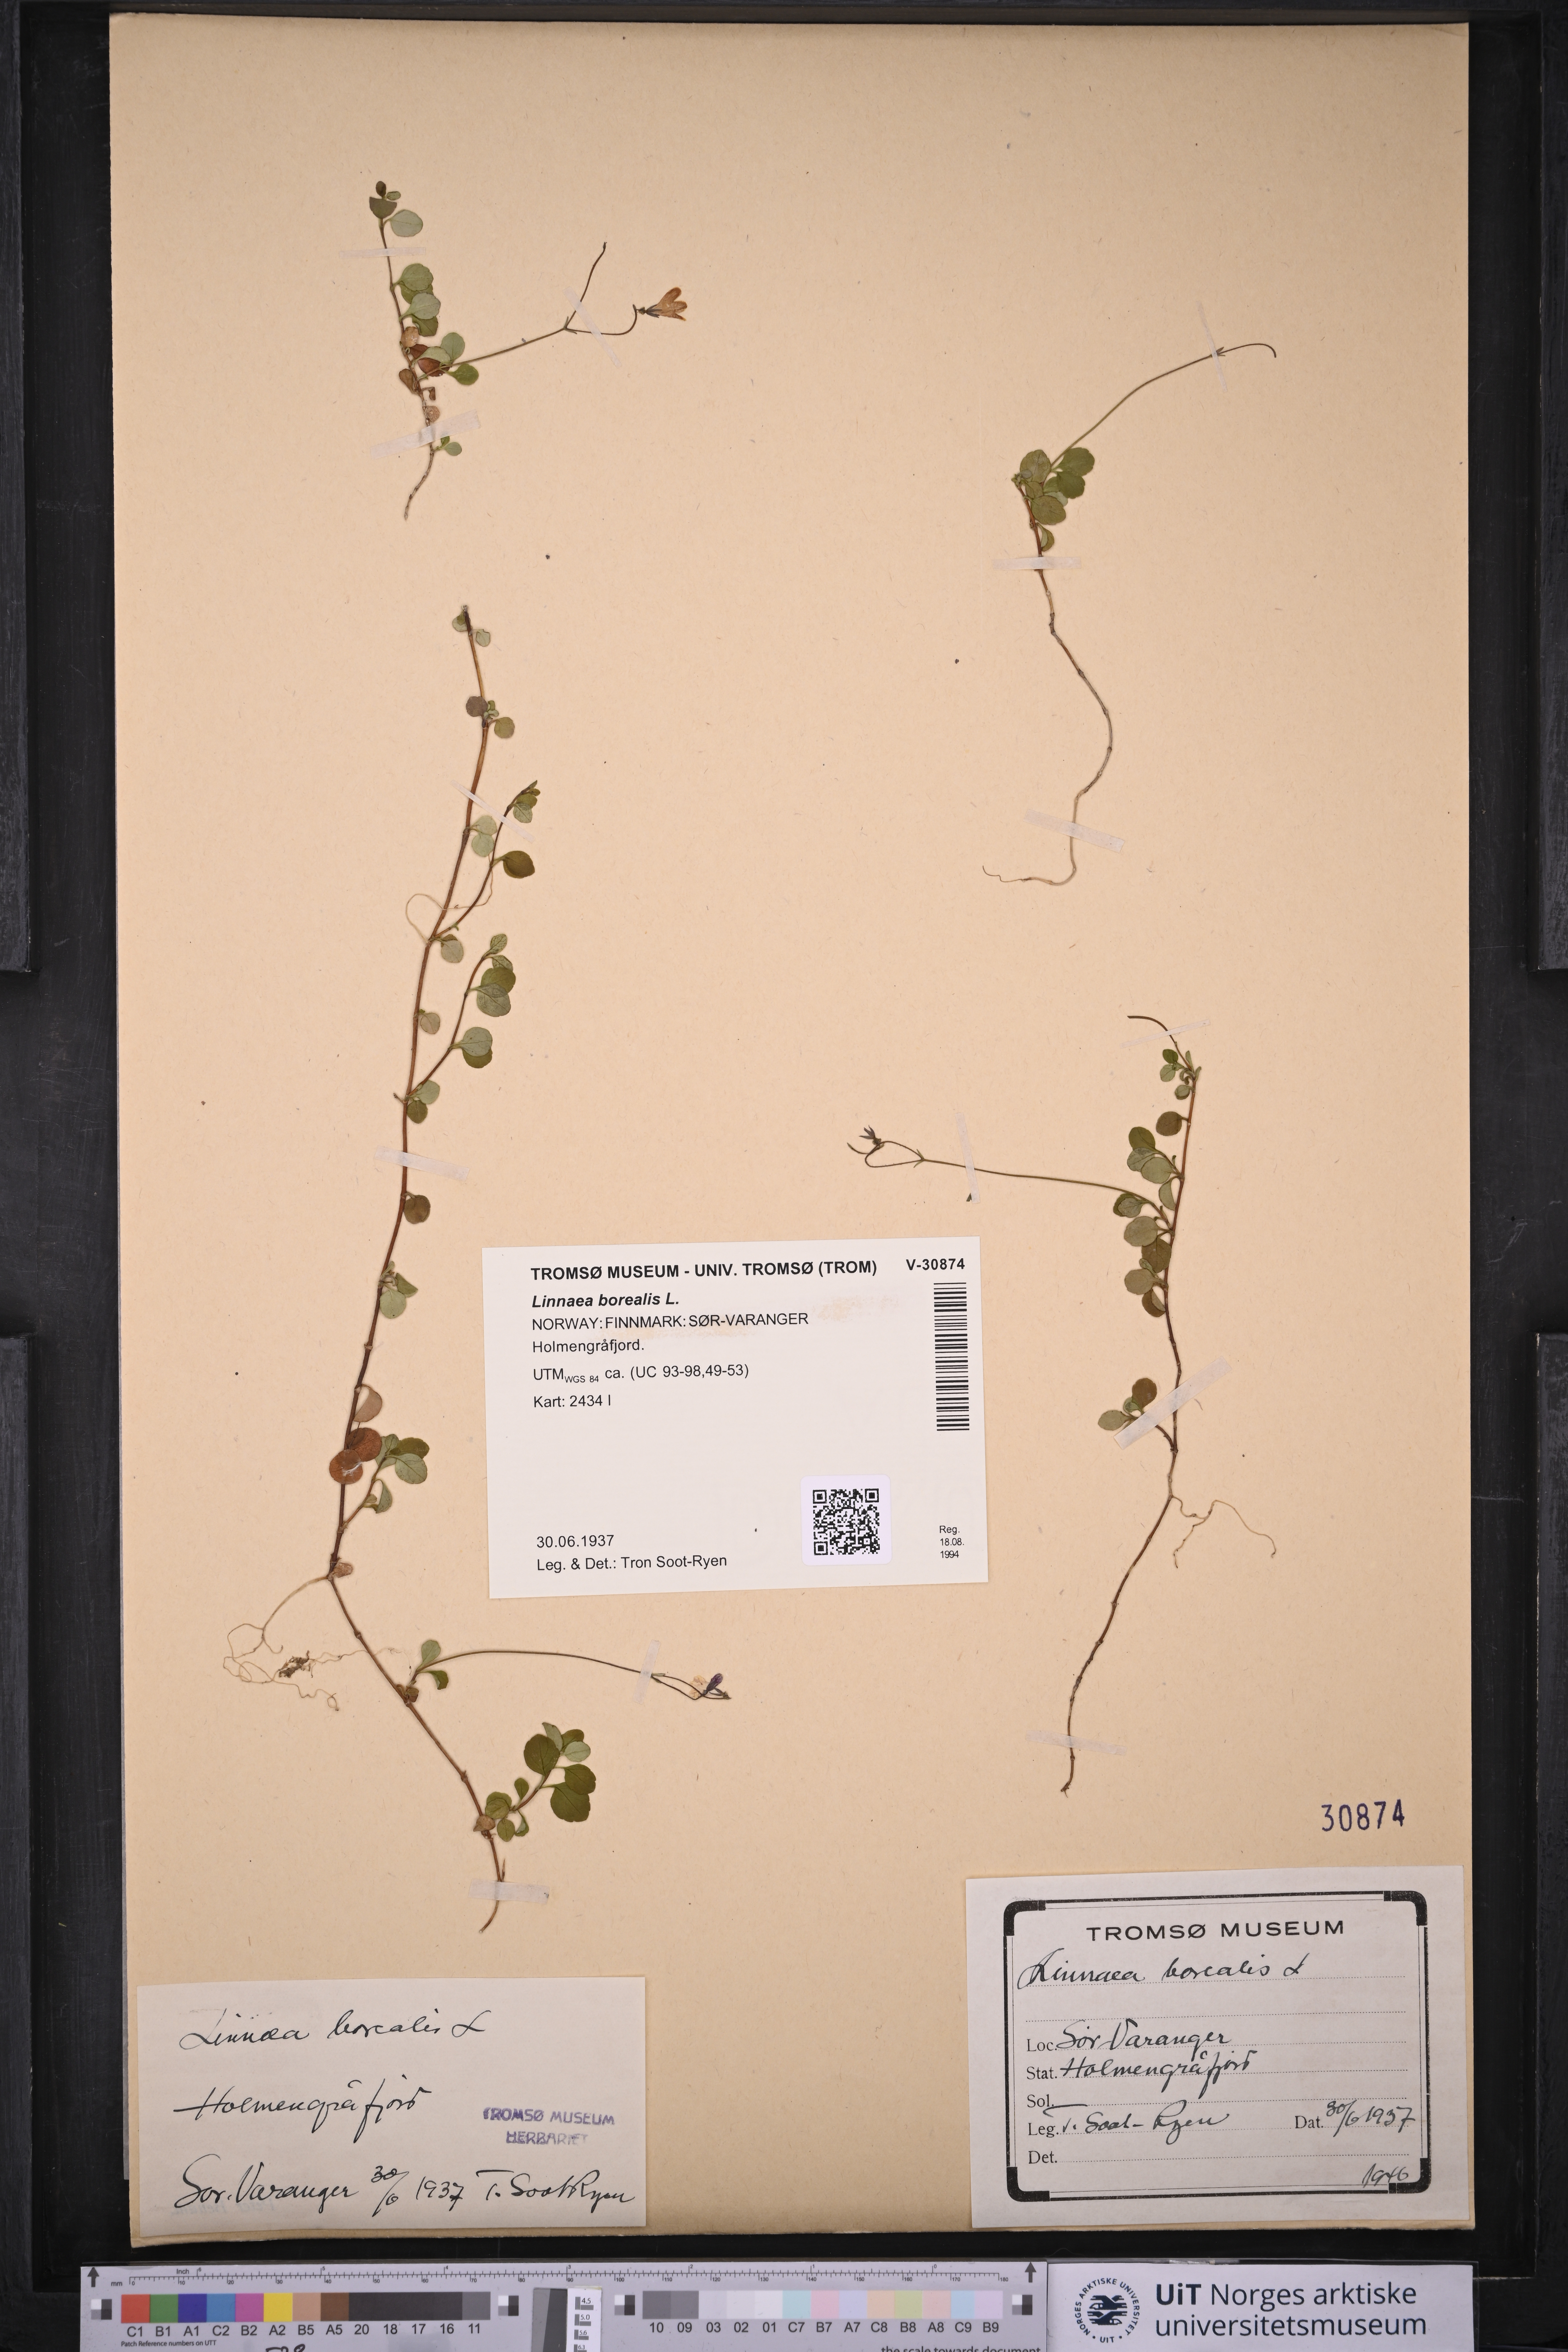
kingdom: Plantae
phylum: Tracheophyta
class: Magnoliopsida
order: Dipsacales
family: Caprifoliaceae
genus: Linnaea
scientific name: Linnaea borealis
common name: Twinflower
